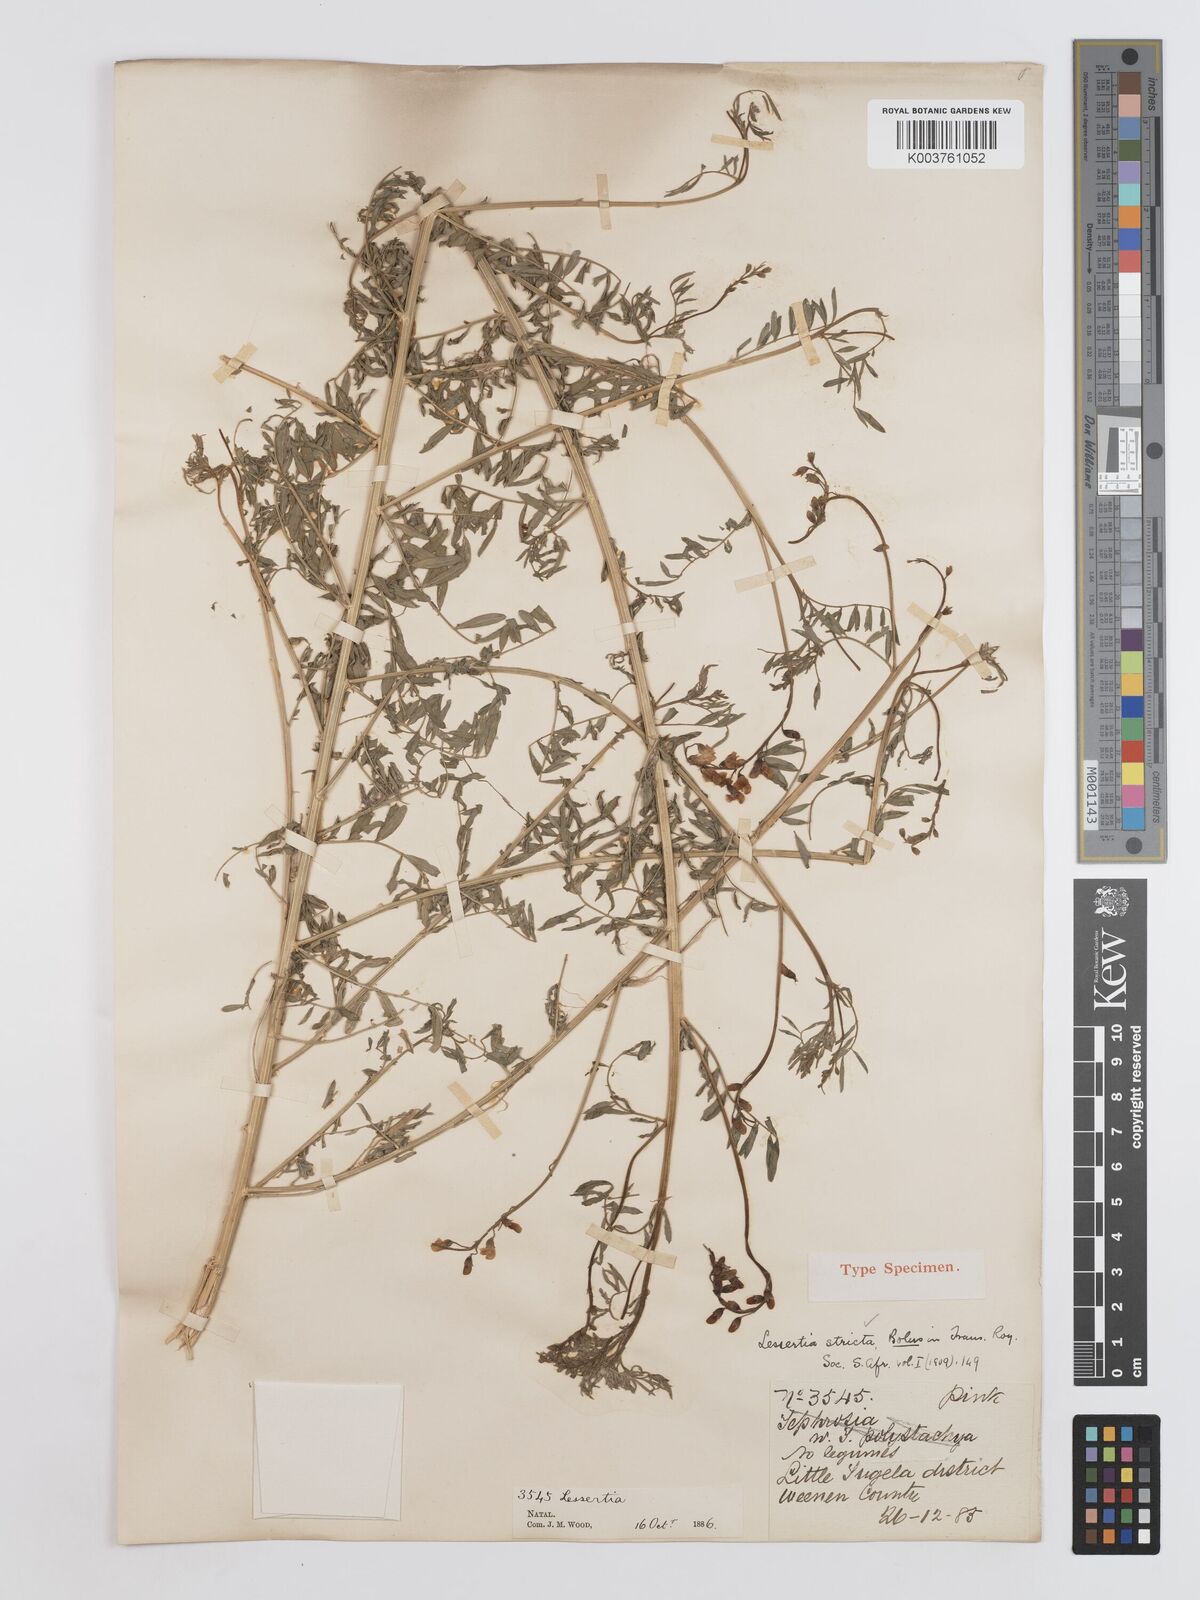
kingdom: Plantae
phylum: Tracheophyta
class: Magnoliopsida
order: Fabales
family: Fabaceae
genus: Lessertia
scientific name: Lessertia stricta
